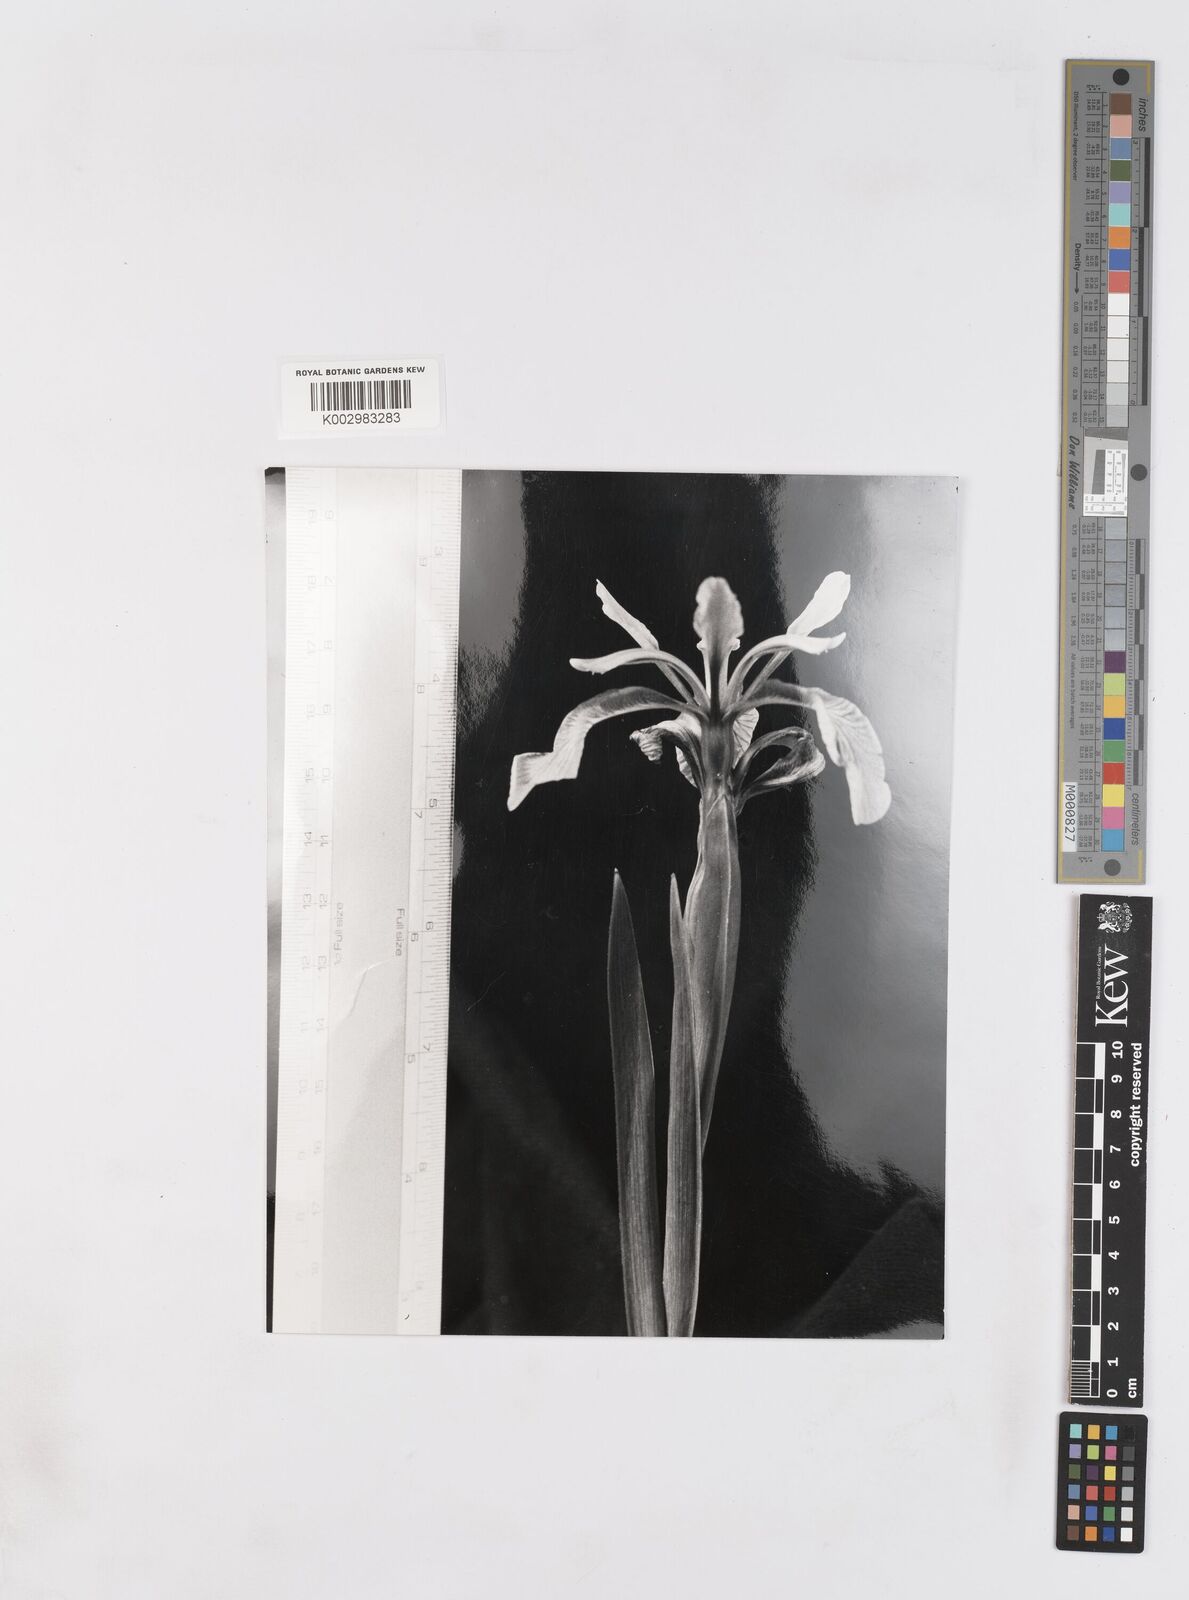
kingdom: Plantae
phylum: Tracheophyta
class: Liliopsida
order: Asparagales
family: Iridaceae
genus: Iris
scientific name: Iris spuria
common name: Blue iris
